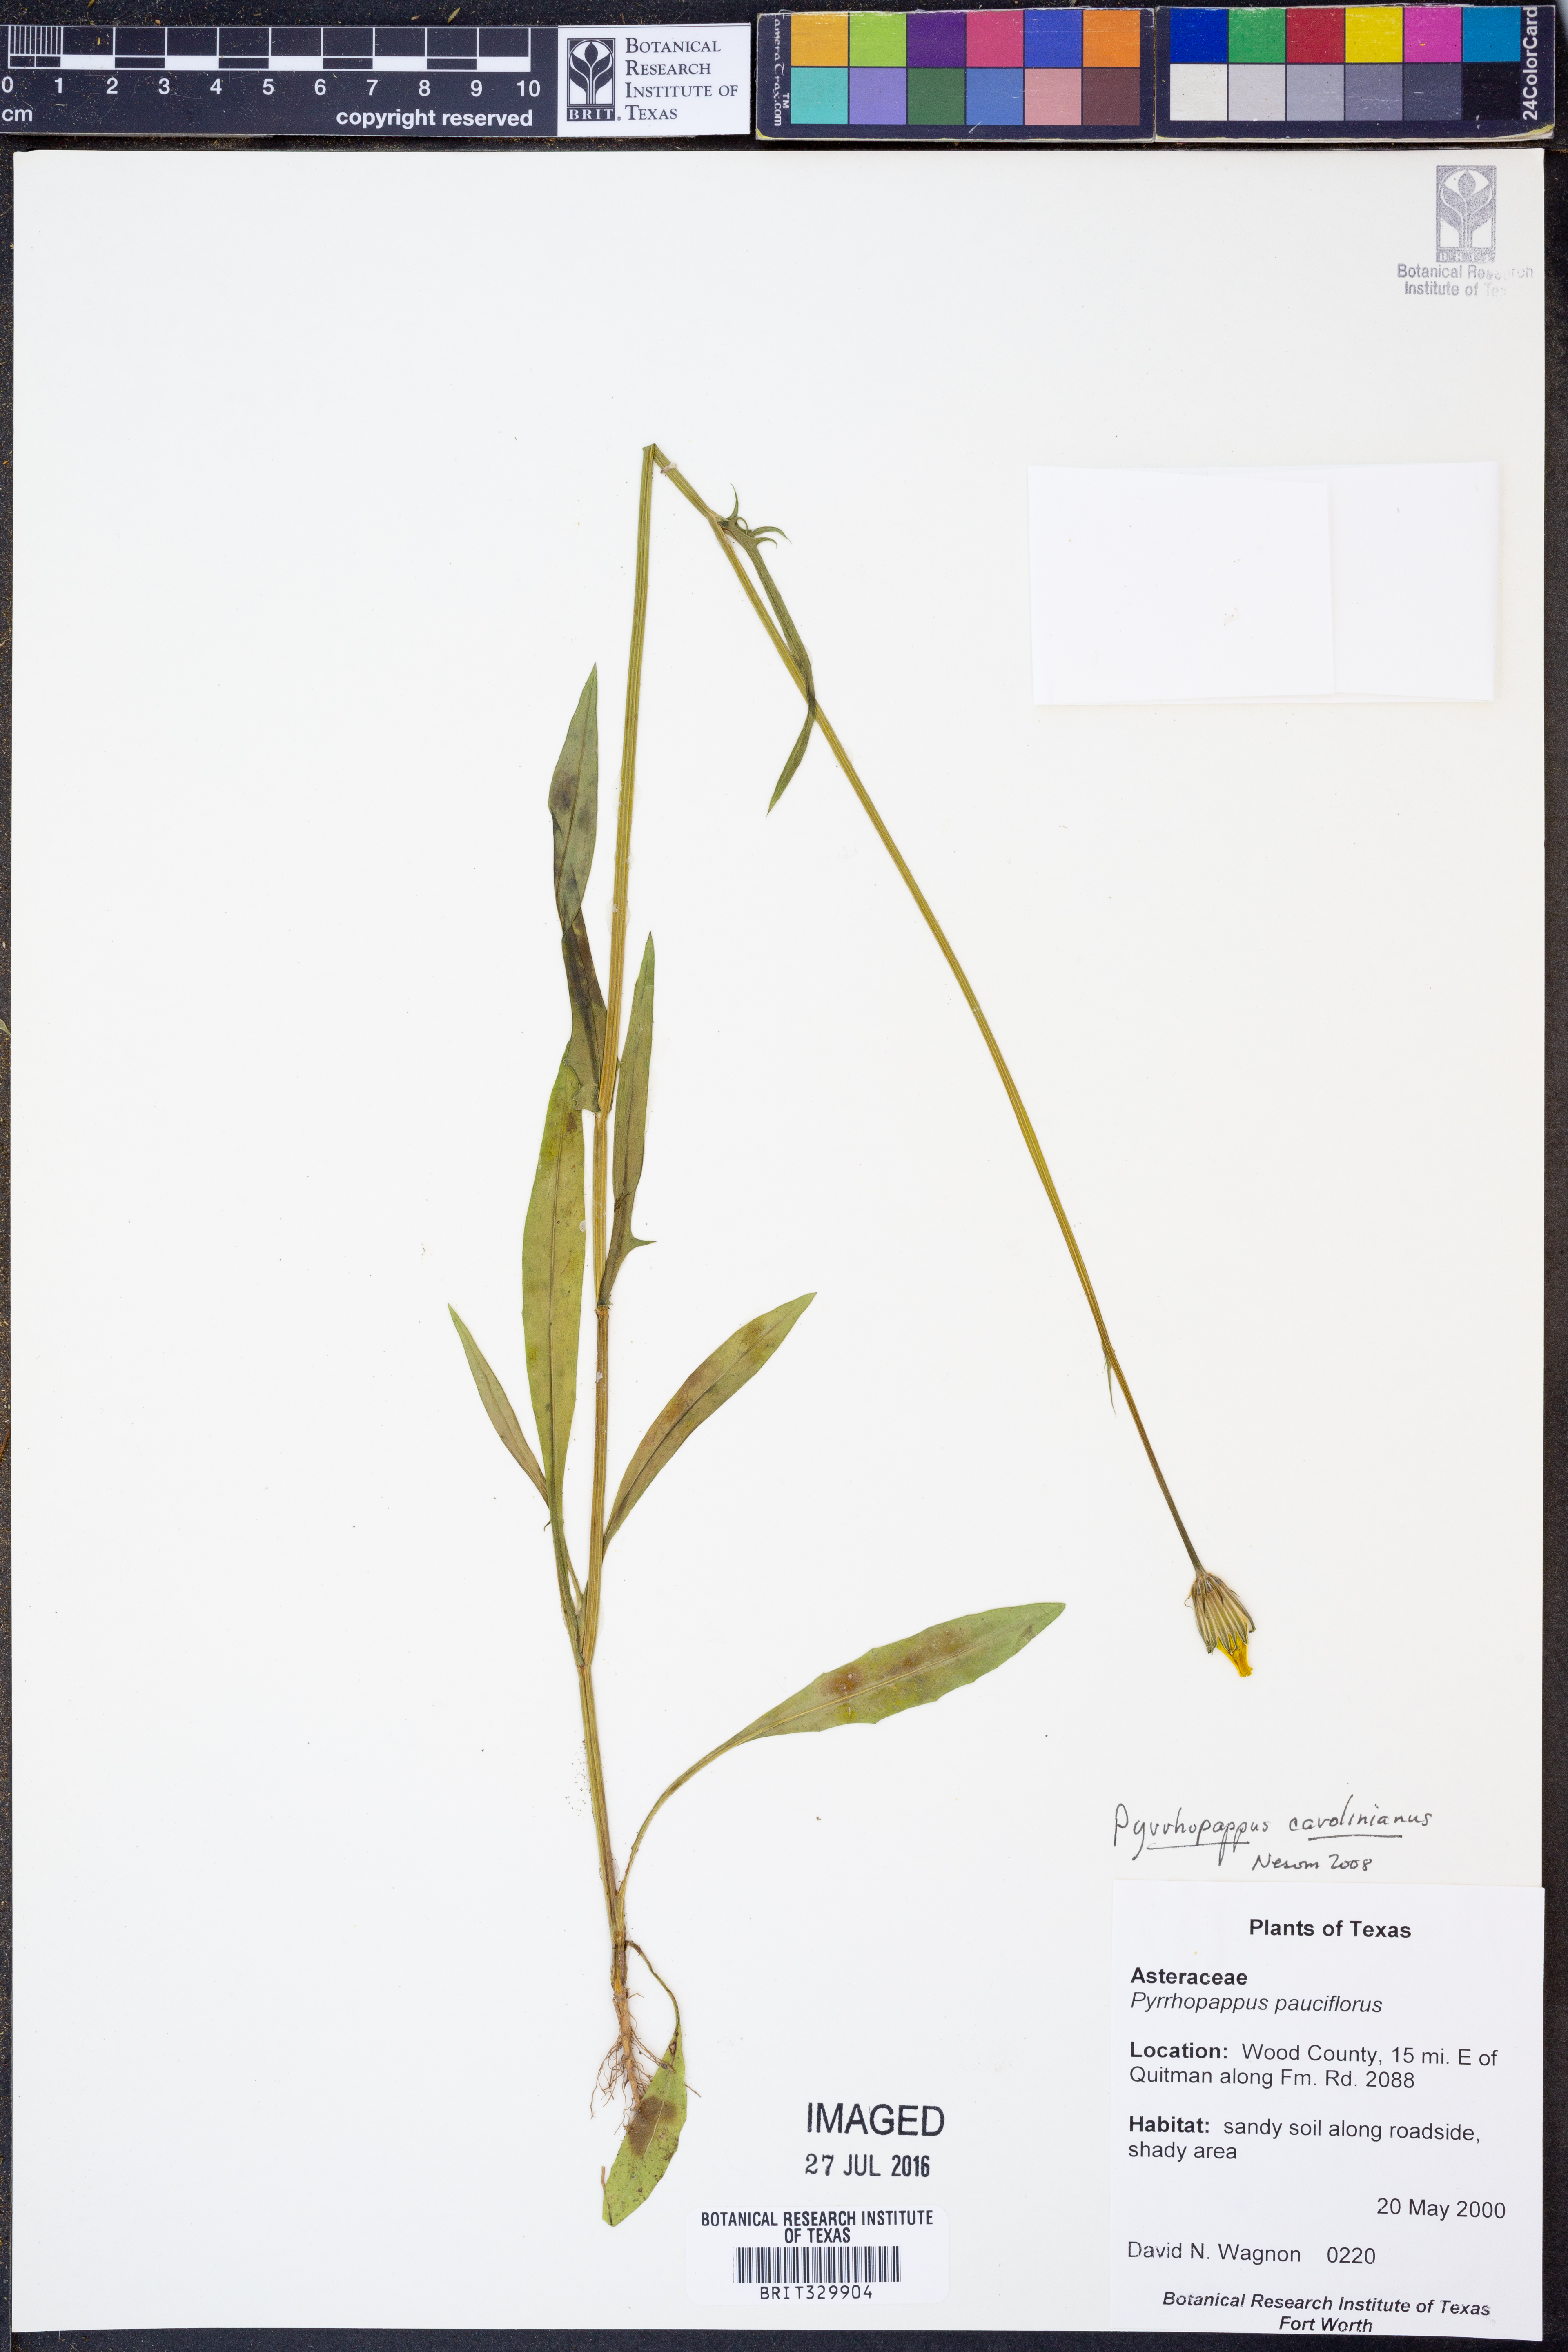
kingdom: Plantae
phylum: Tracheophyta
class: Magnoliopsida
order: Asterales
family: Asteraceae
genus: Pyrrhopappus
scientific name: Pyrrhopappus carolinianus
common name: Carolina desert-chicory
